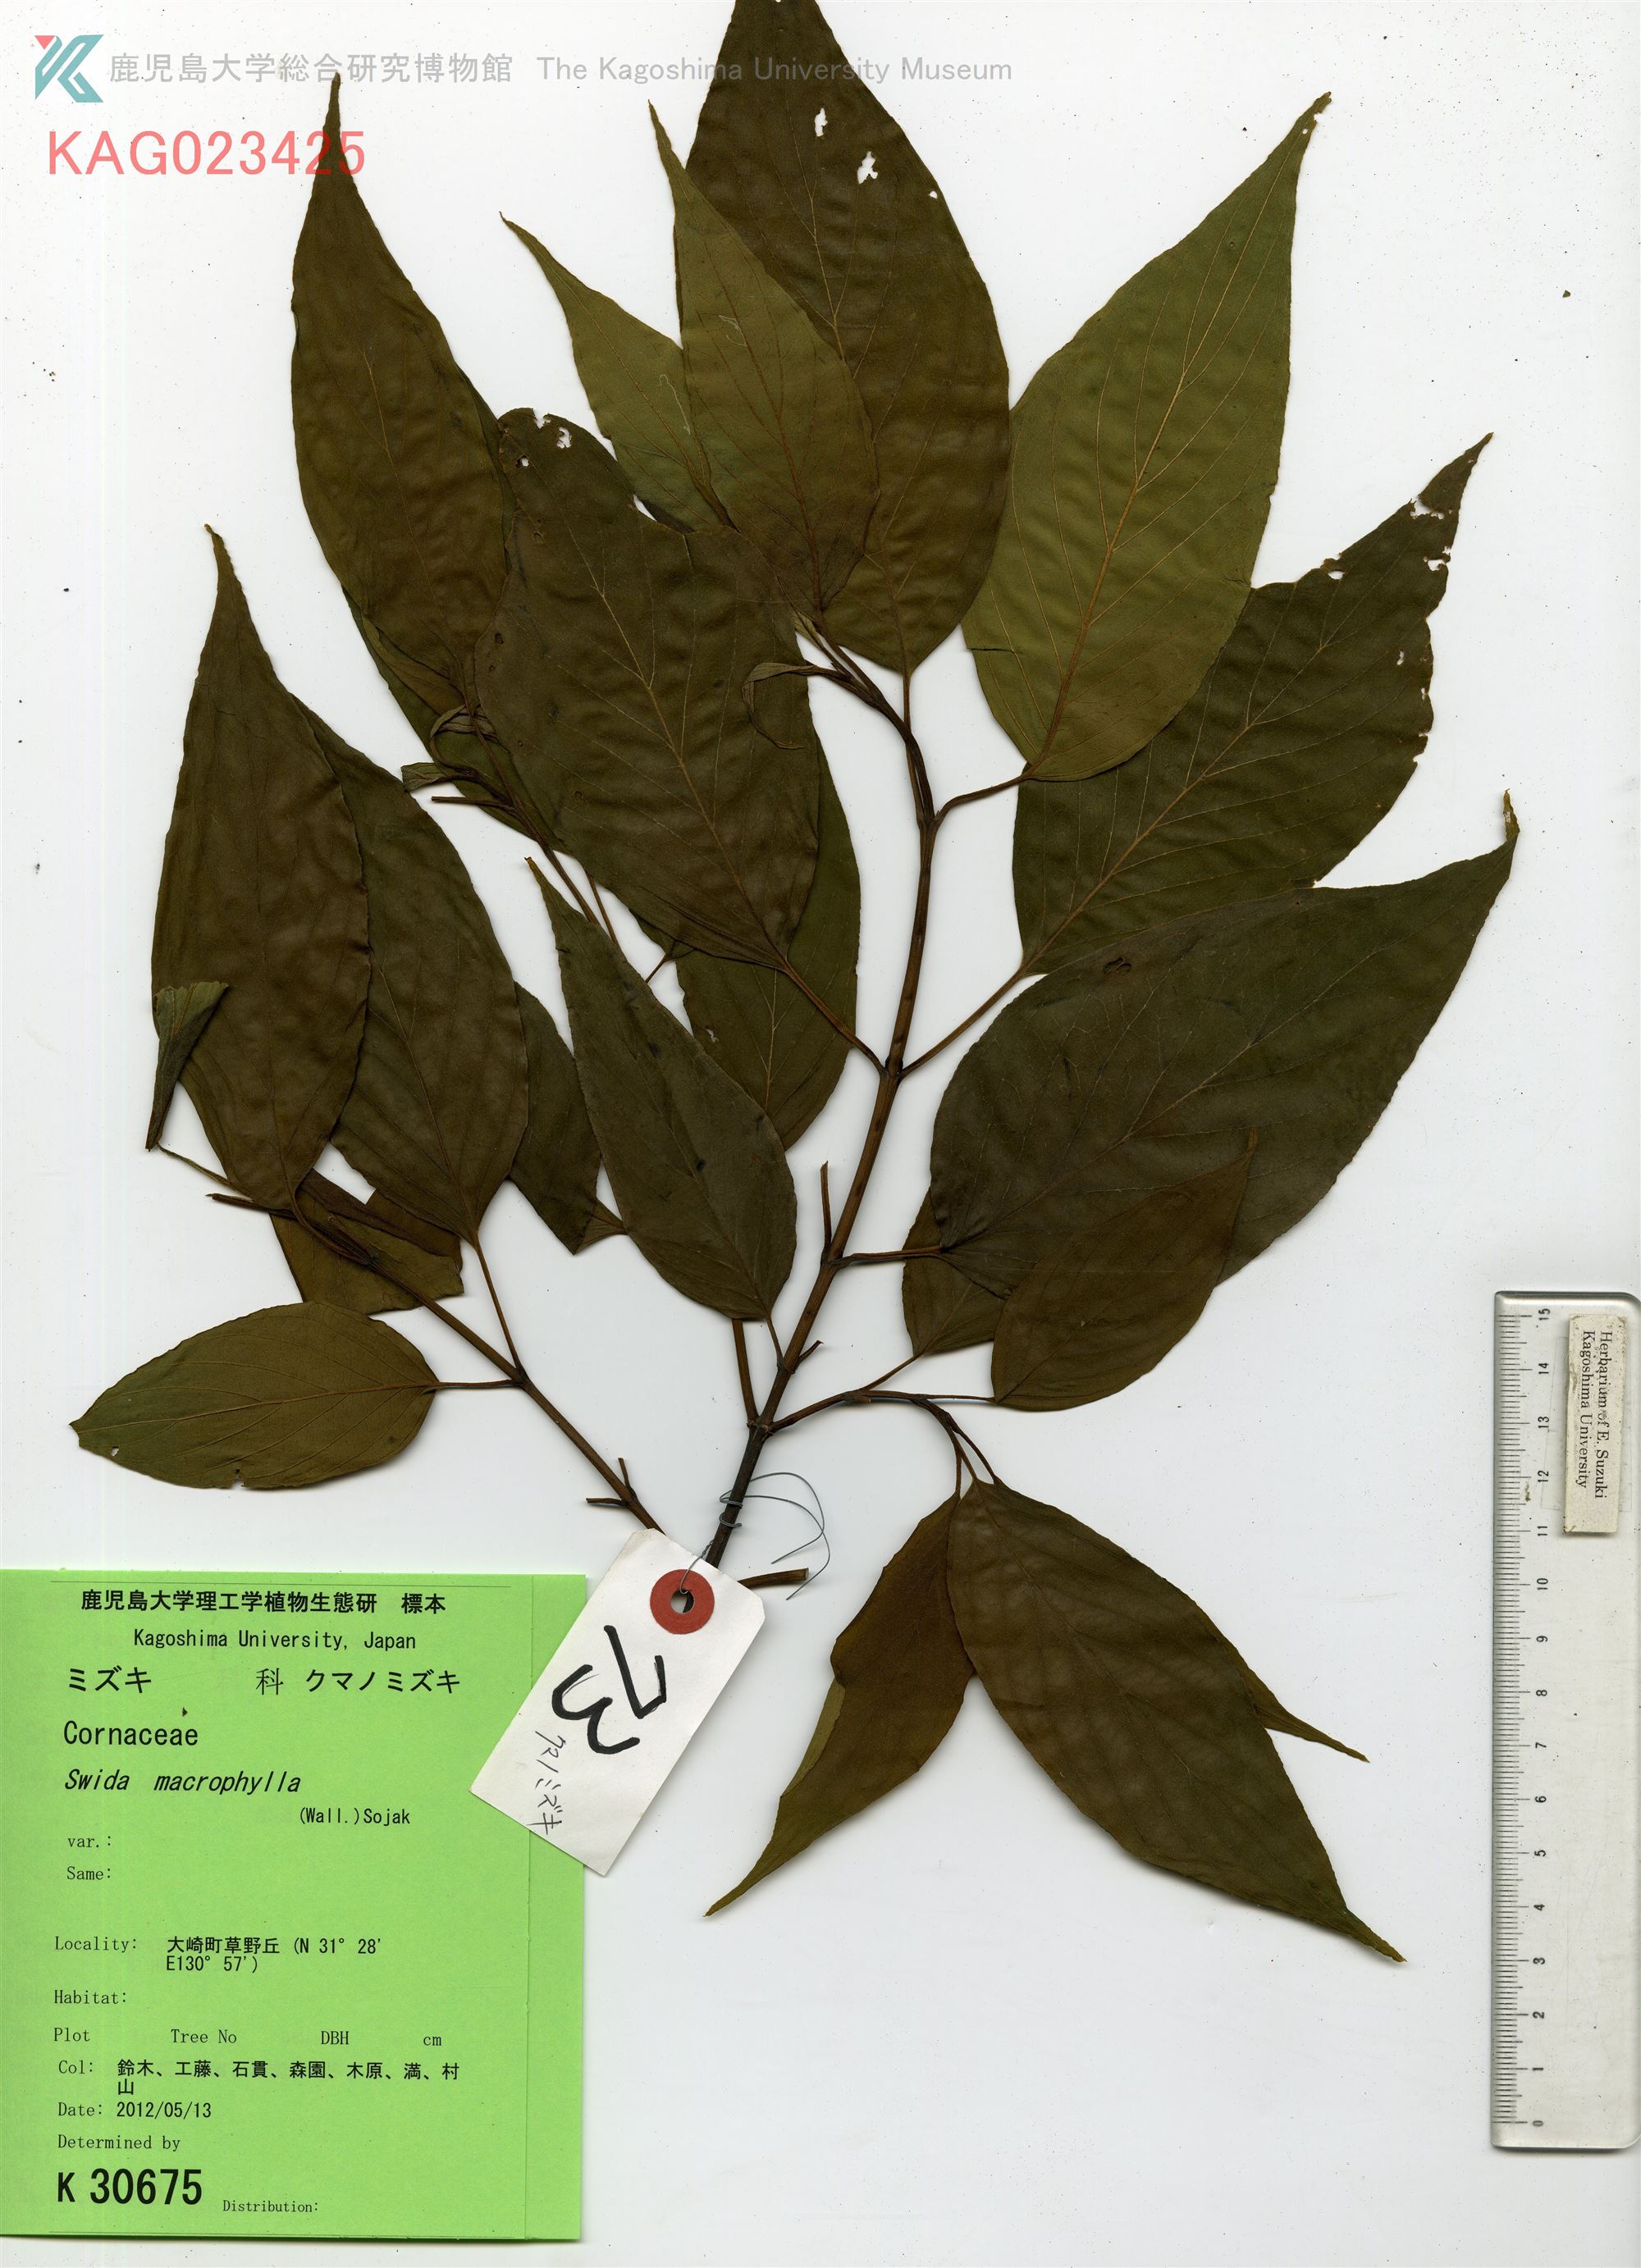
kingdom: Plantae
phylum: Tracheophyta
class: Magnoliopsida
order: Cornales
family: Cornaceae
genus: Cornus
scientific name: Cornus macrophylla
